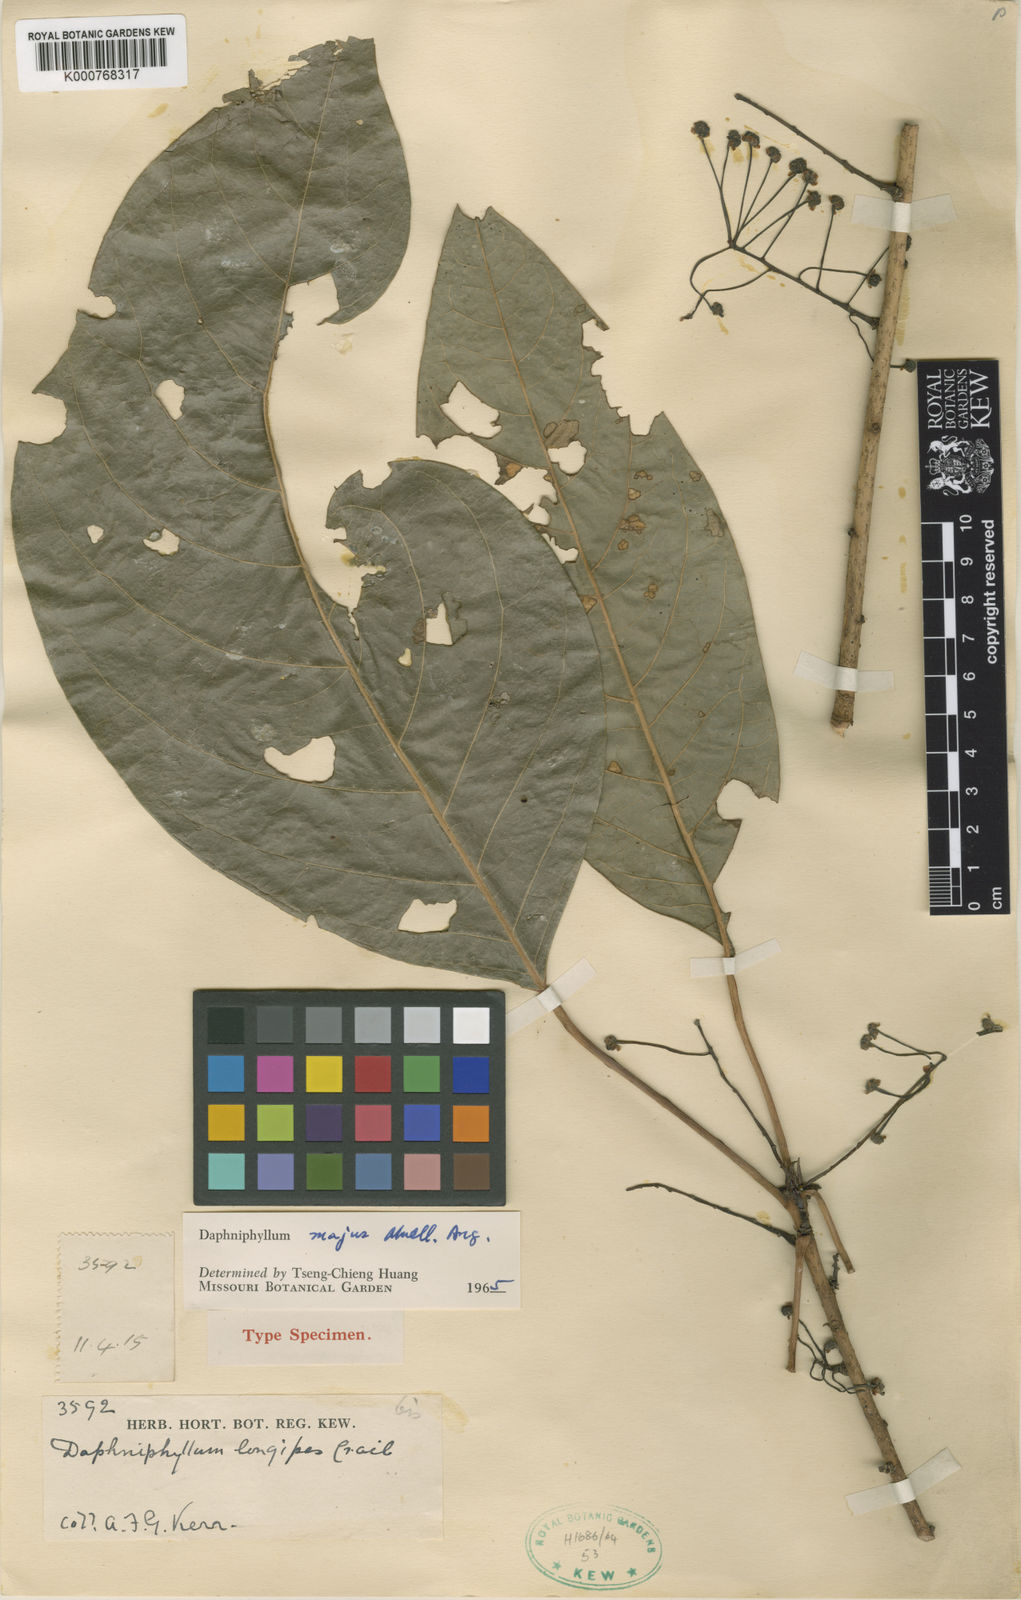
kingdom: Plantae
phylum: Tracheophyta
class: Magnoliopsida
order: Saxifragales
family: Daphniphyllaceae
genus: Daphniphyllum
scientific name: Daphniphyllum
